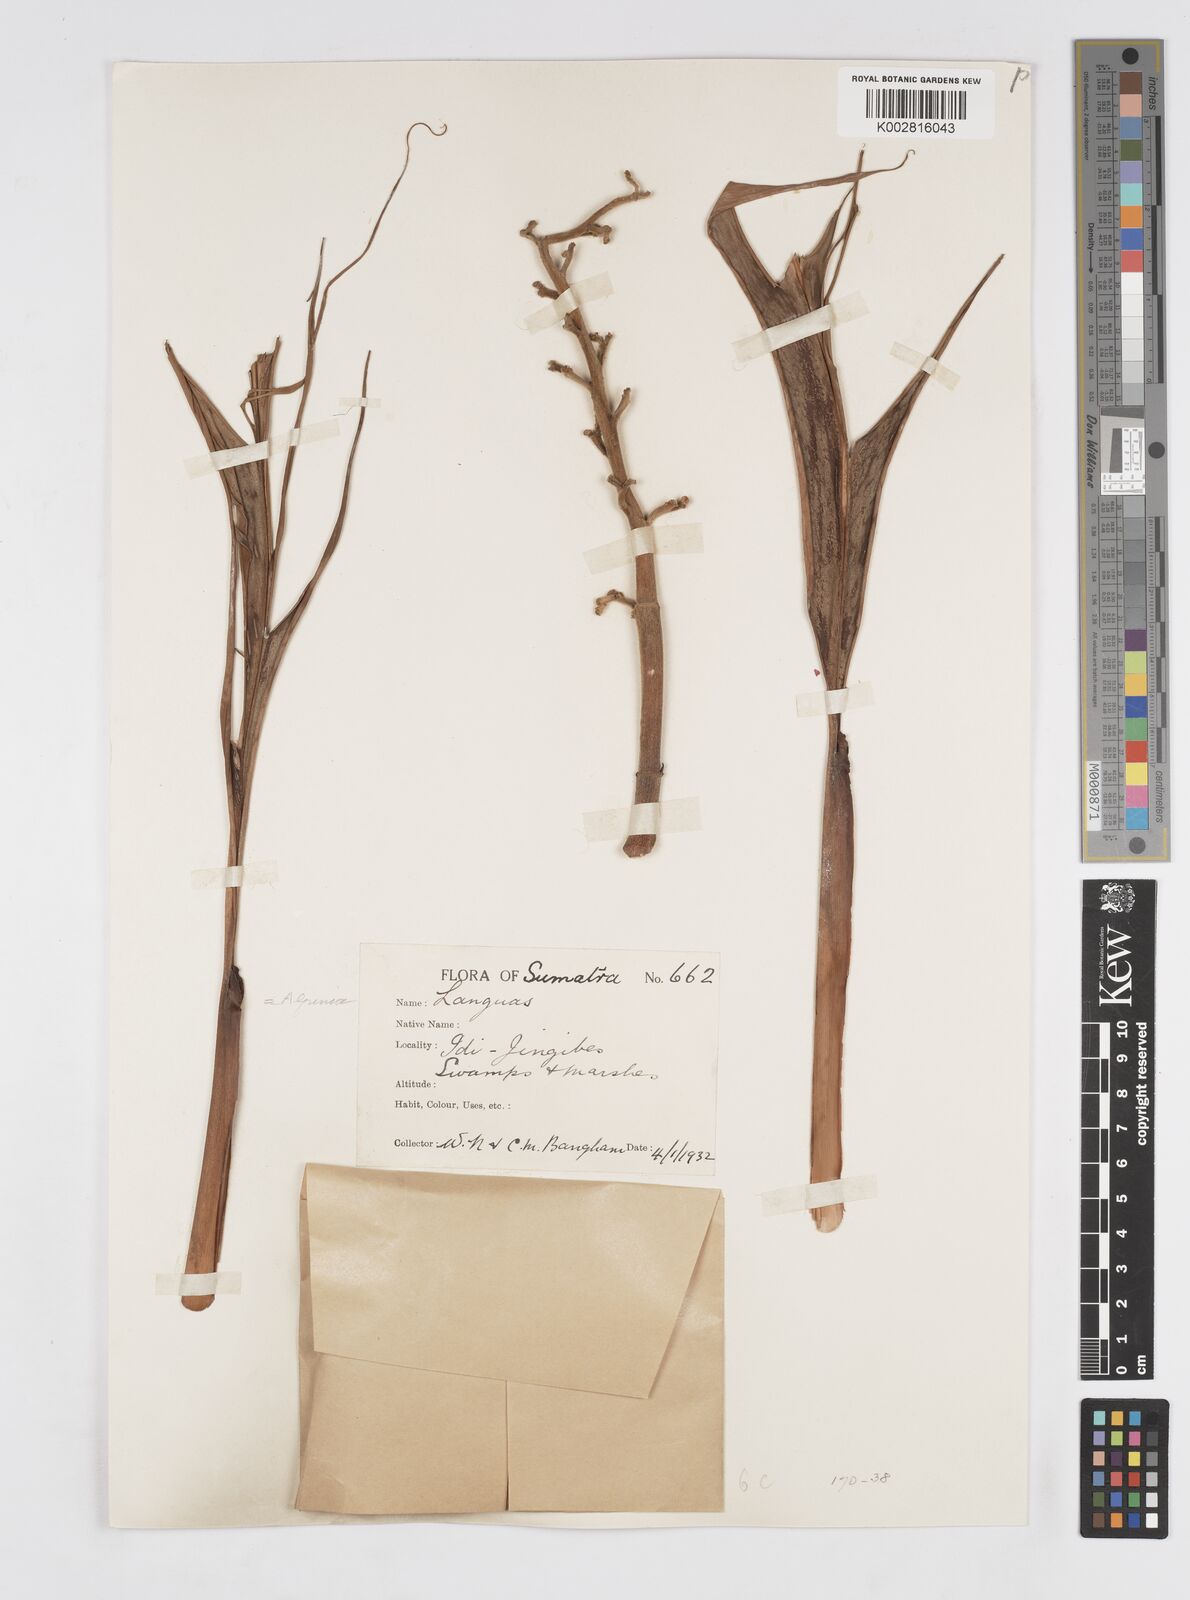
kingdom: Plantae
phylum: Tracheophyta
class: Liliopsida
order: Zingiberales
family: Zingiberaceae
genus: Alpinia
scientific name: Alpinia
